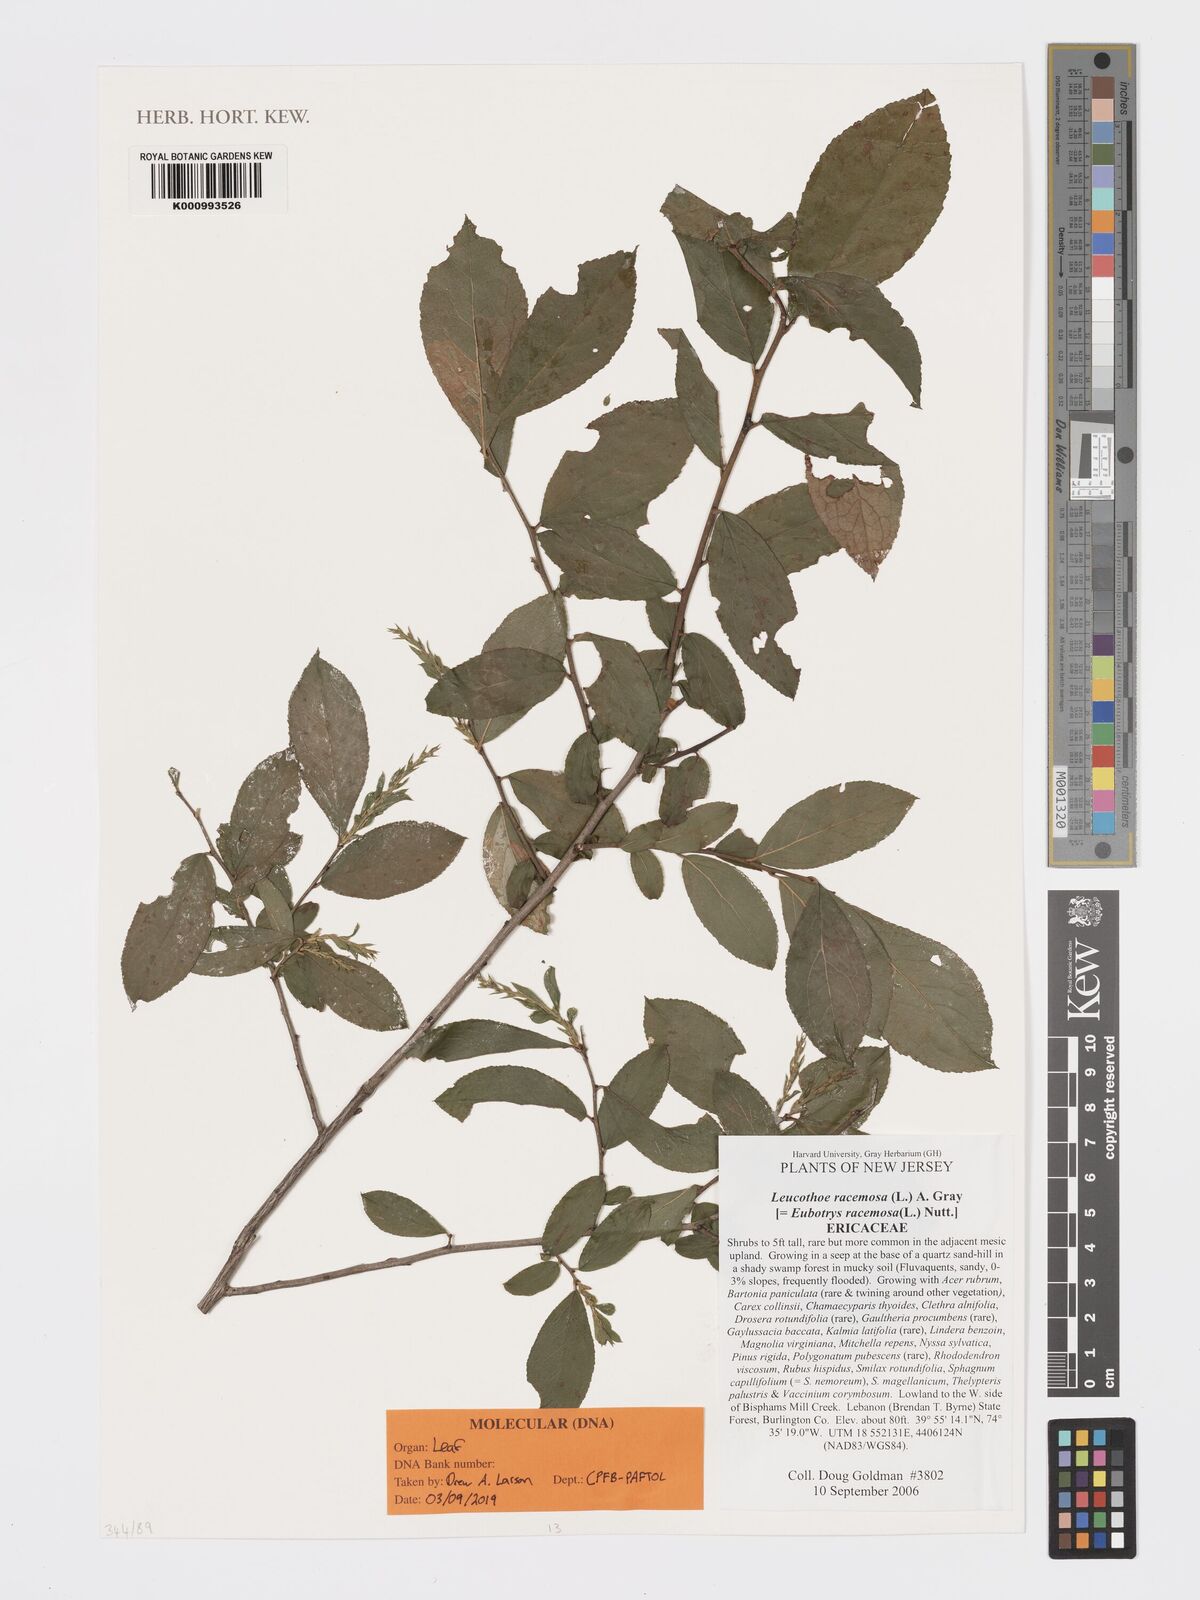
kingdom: Plantae
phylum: Tracheophyta
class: Magnoliopsida
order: Ericales
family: Ericaceae
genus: Eubotrys
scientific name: Eubotrys racemosa
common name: Fetterbush
